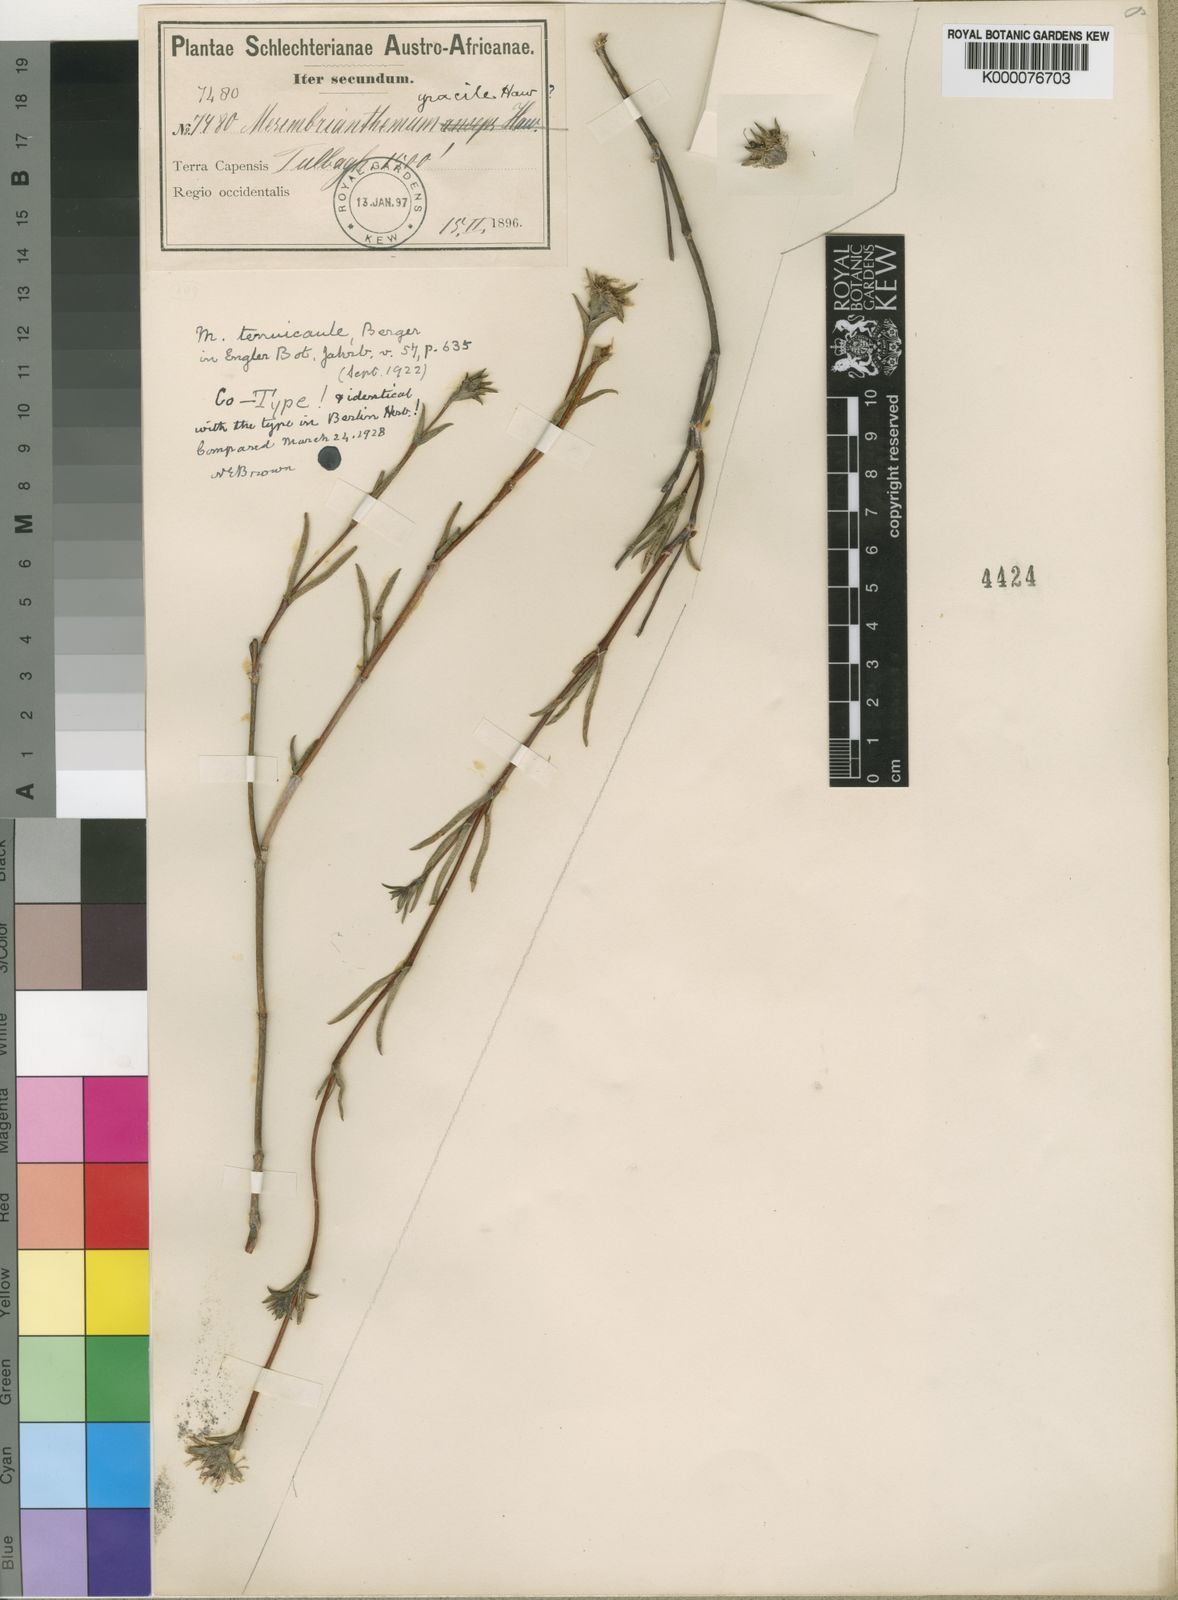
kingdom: Plantae
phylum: Tracheophyta
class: Magnoliopsida
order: Caryophyllales
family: Aizoaceae
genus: Erepsia
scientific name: Erepsia gracilis
